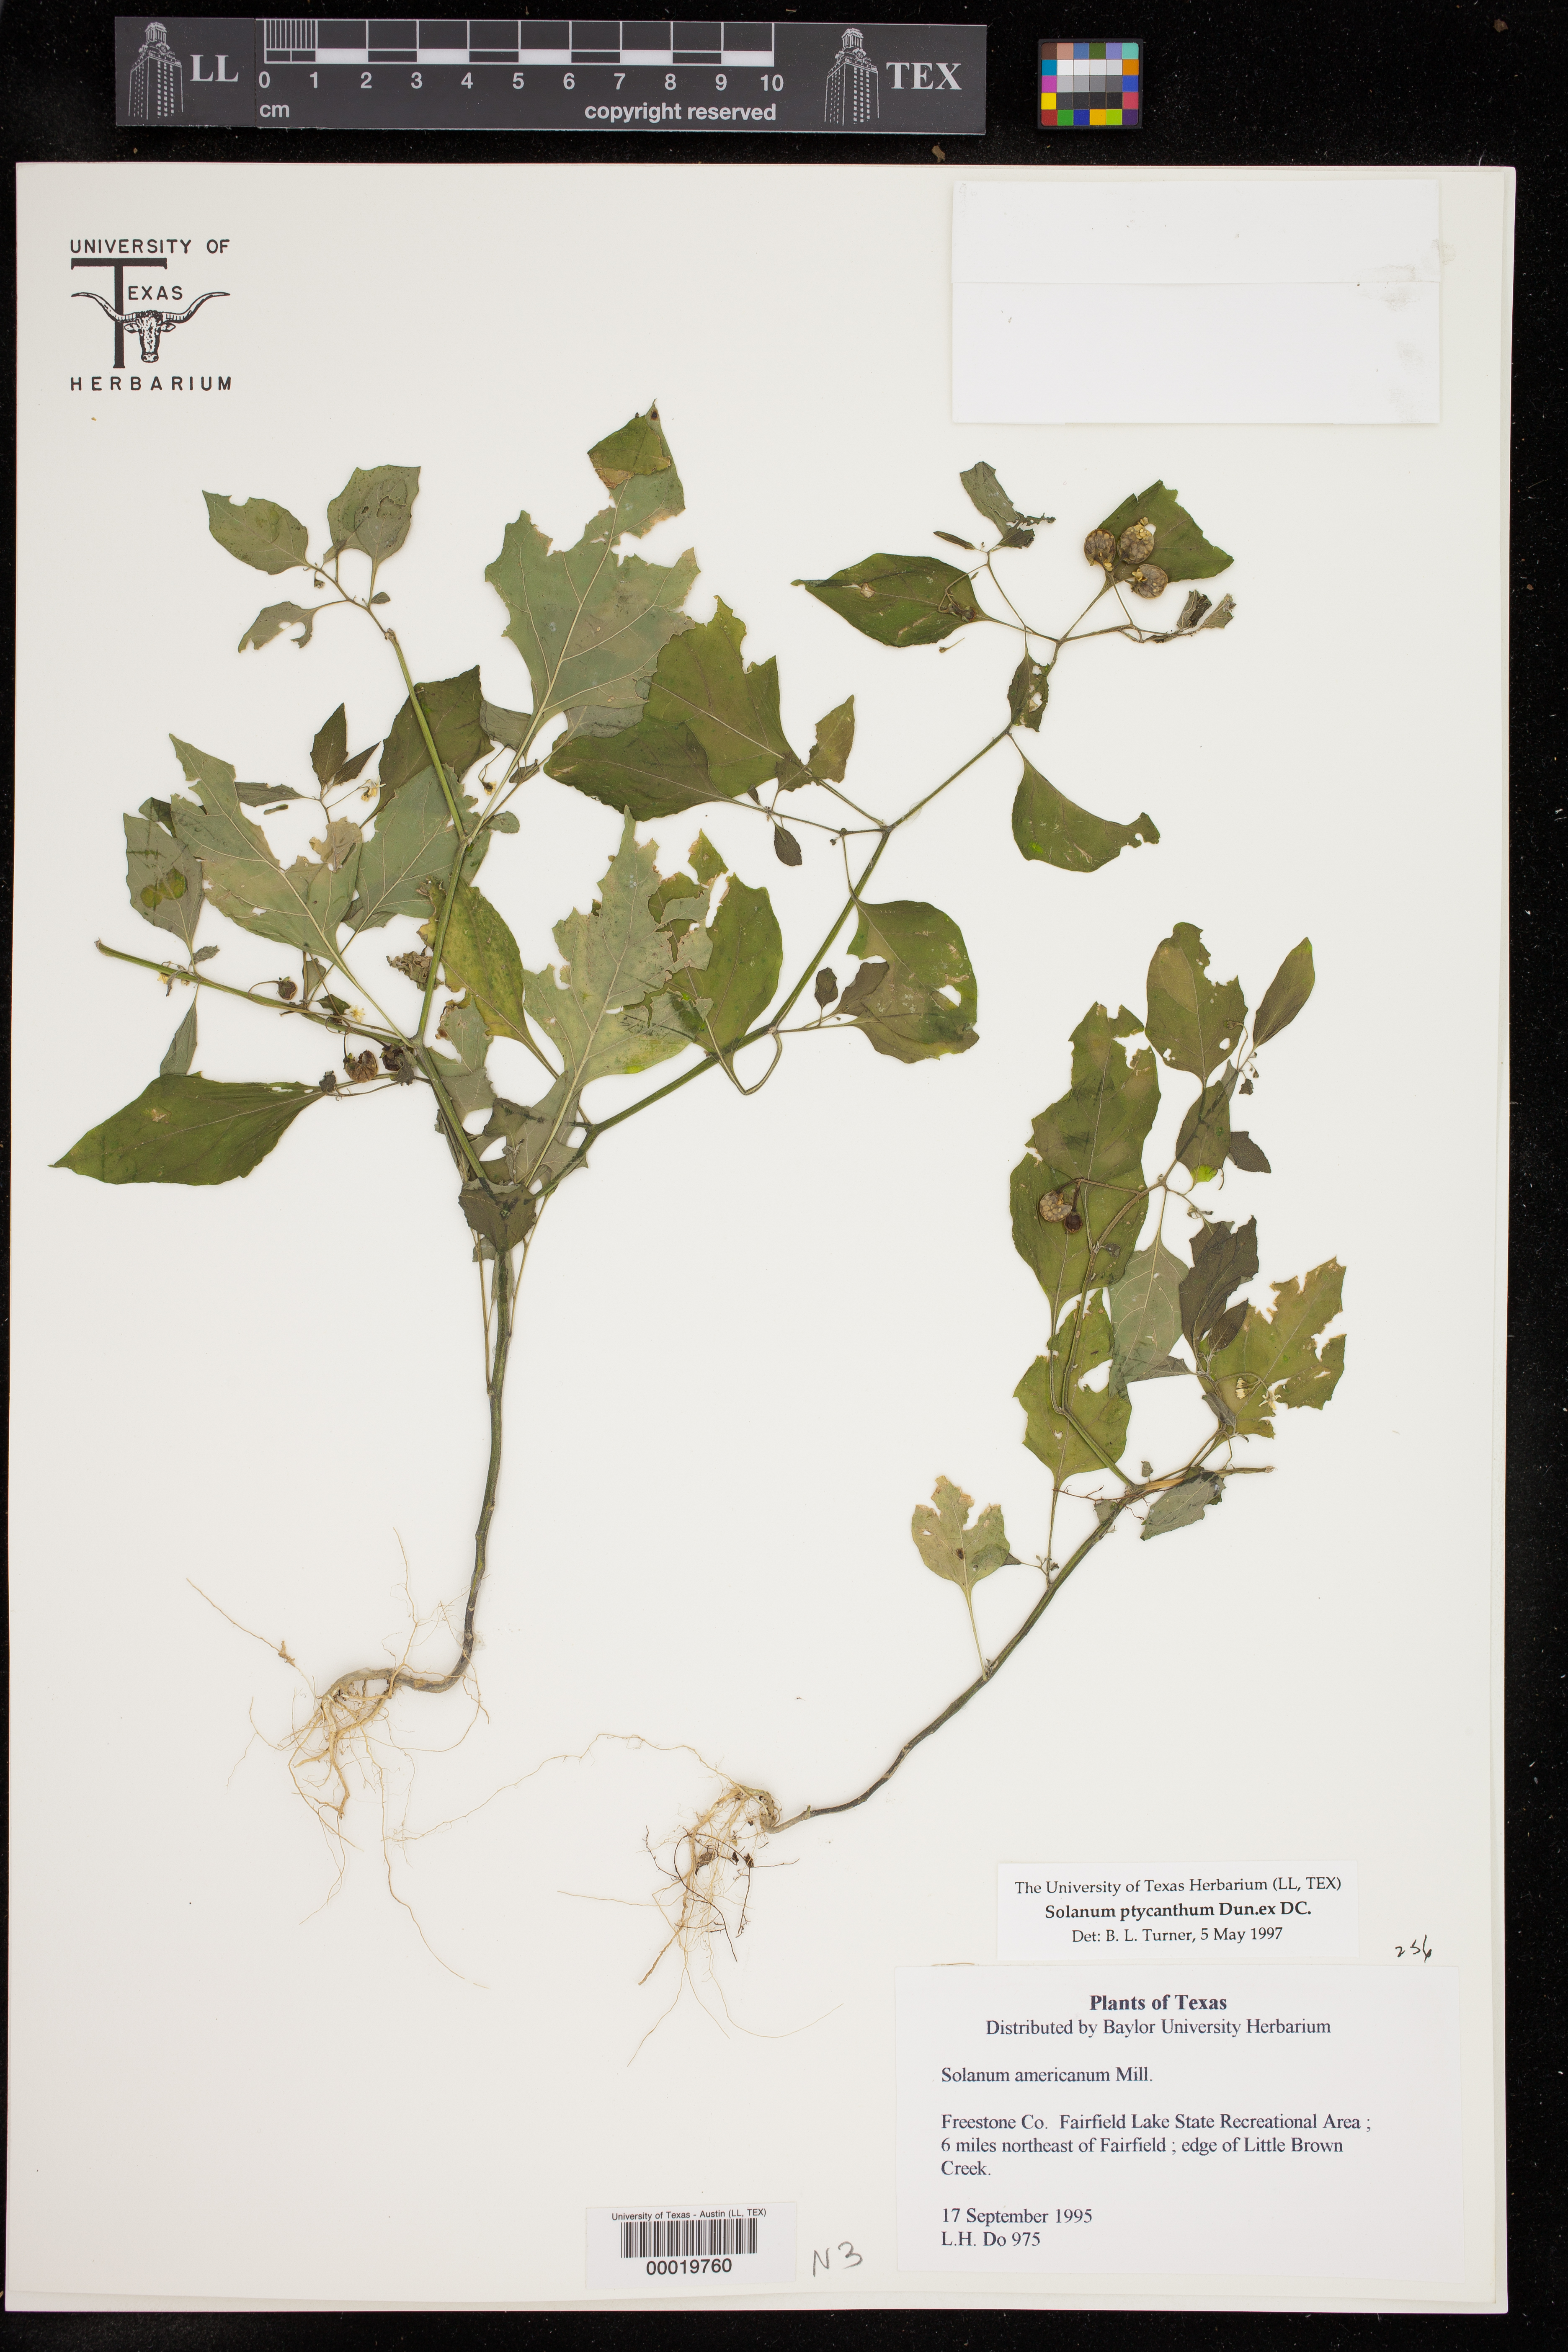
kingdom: Plantae
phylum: Tracheophyta
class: Magnoliopsida
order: Solanales
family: Solanaceae
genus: Solanum
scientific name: Solanum americanum
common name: American black nightshade
